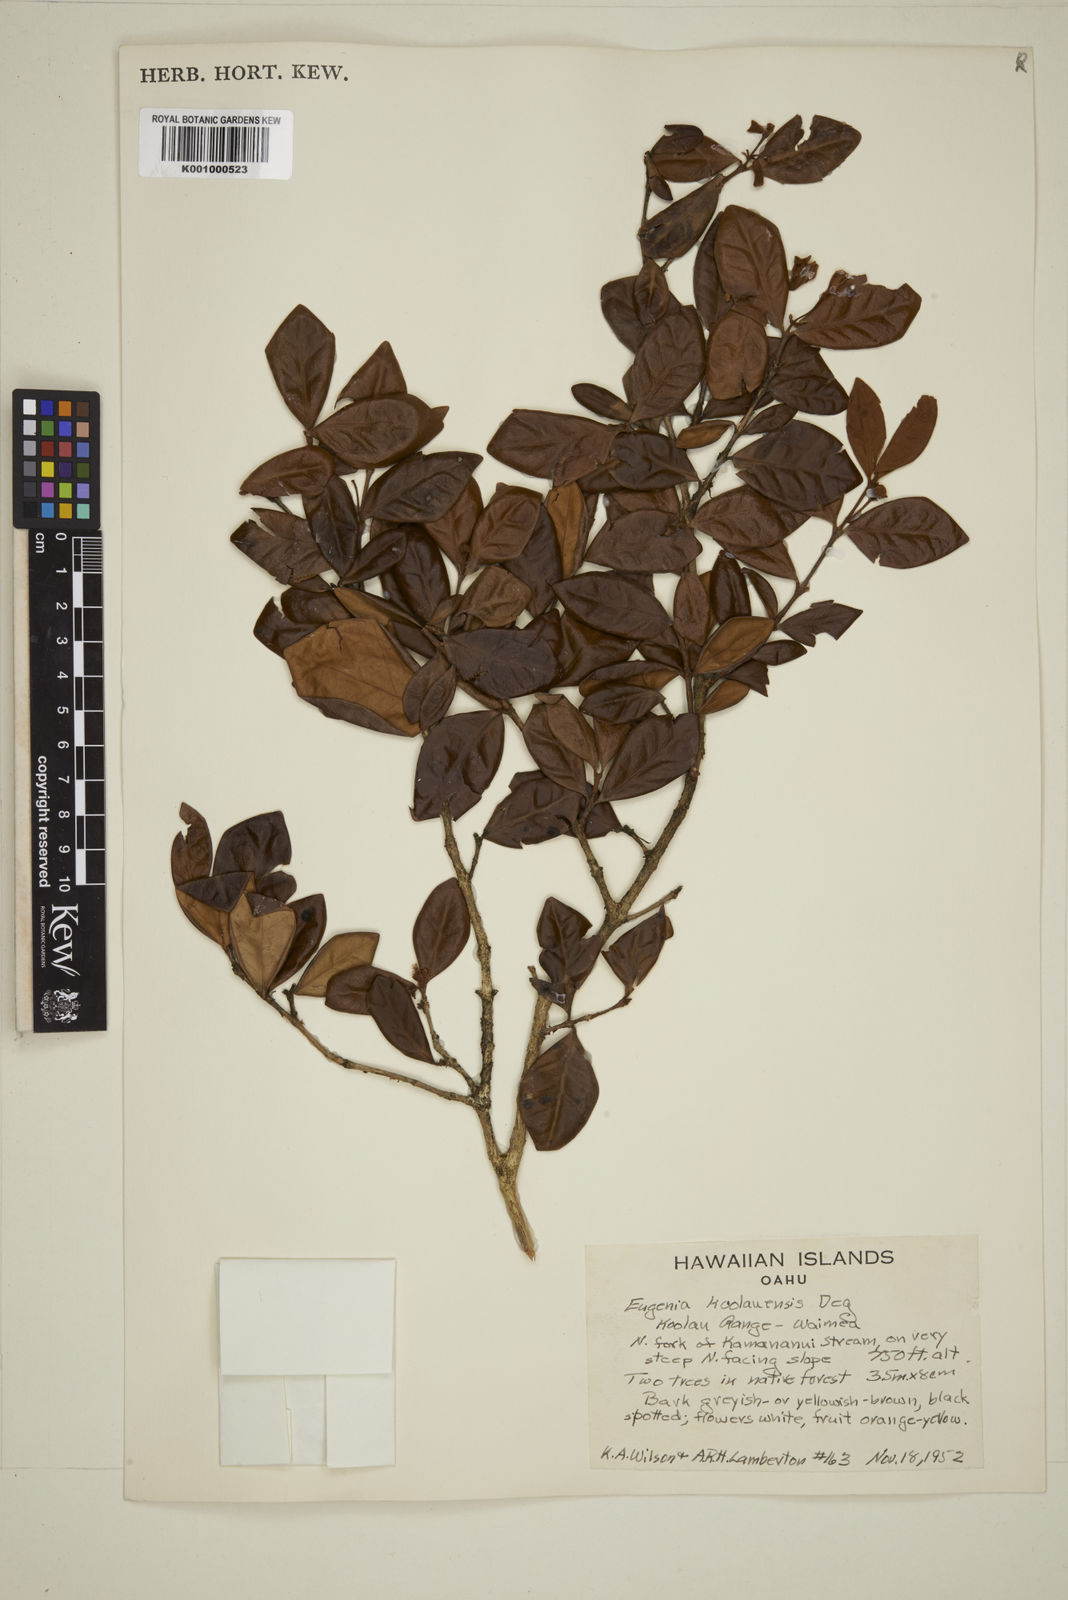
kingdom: Plantae
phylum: Tracheophyta
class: Magnoliopsida
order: Myrtales
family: Myrtaceae
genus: Eugenia
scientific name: Eugenia koolauensis
